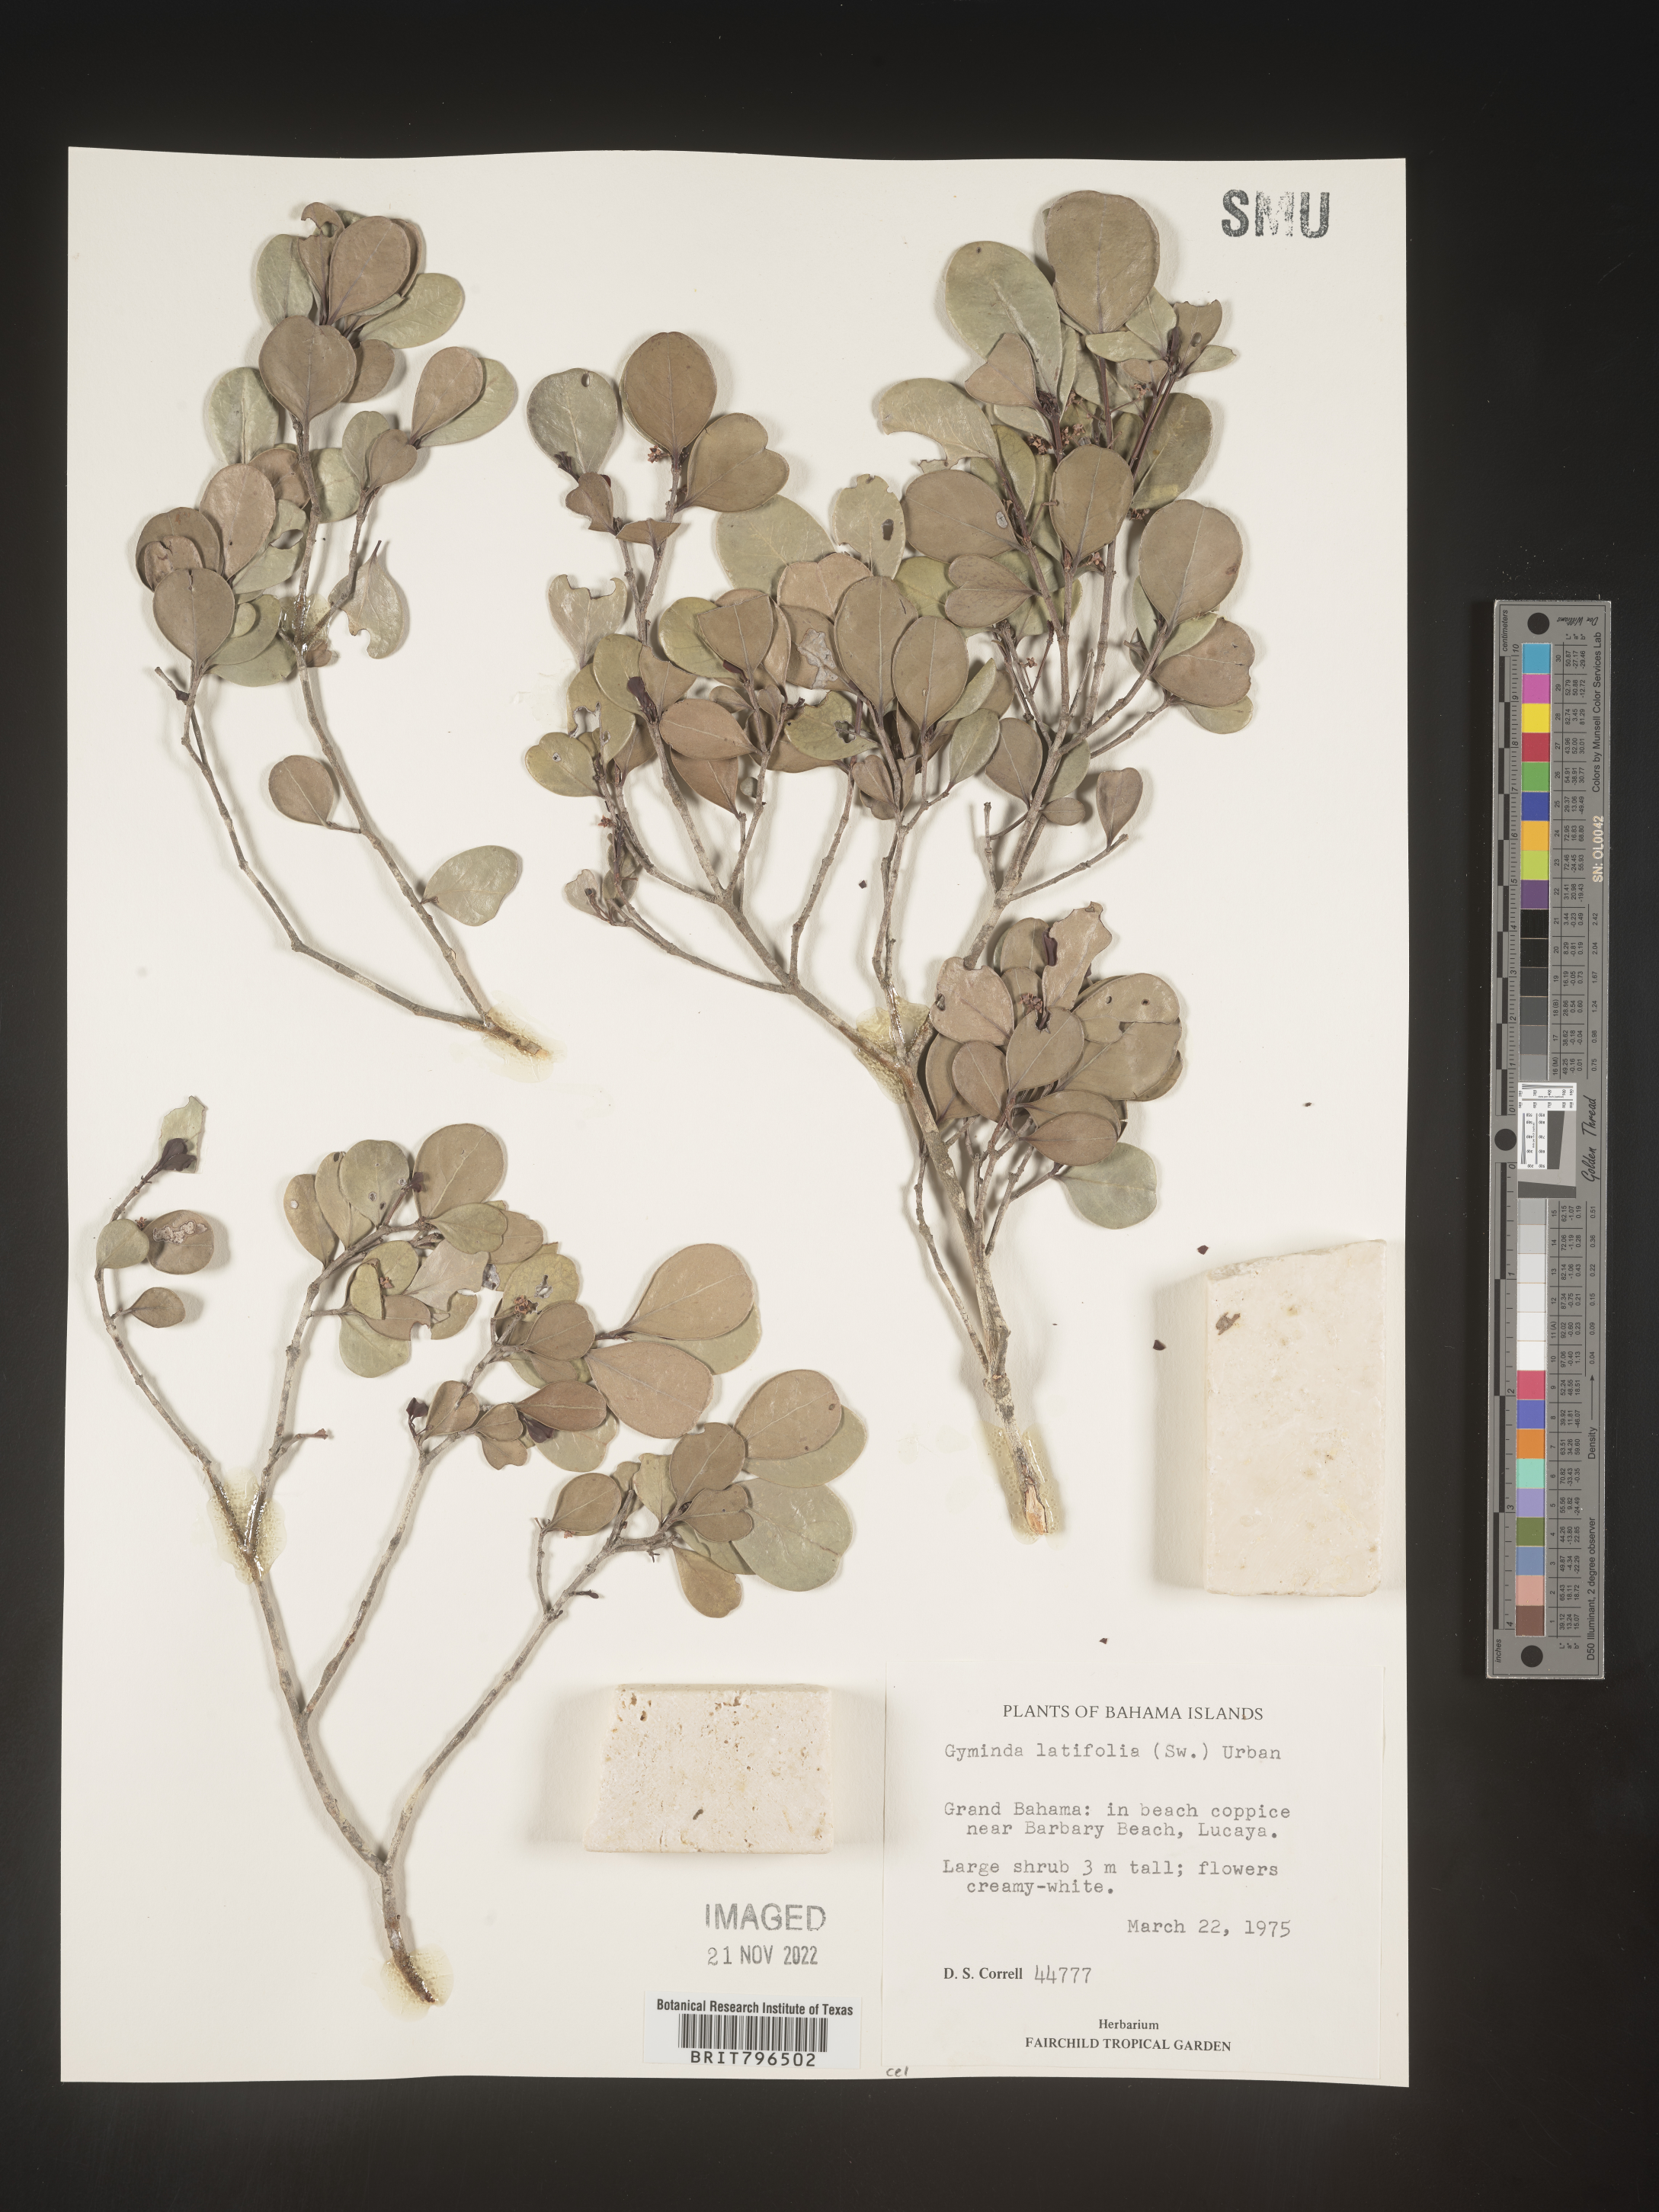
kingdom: Plantae
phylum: Tracheophyta
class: Magnoliopsida
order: Celastrales
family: Celastraceae
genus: Gyminda
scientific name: Gyminda
